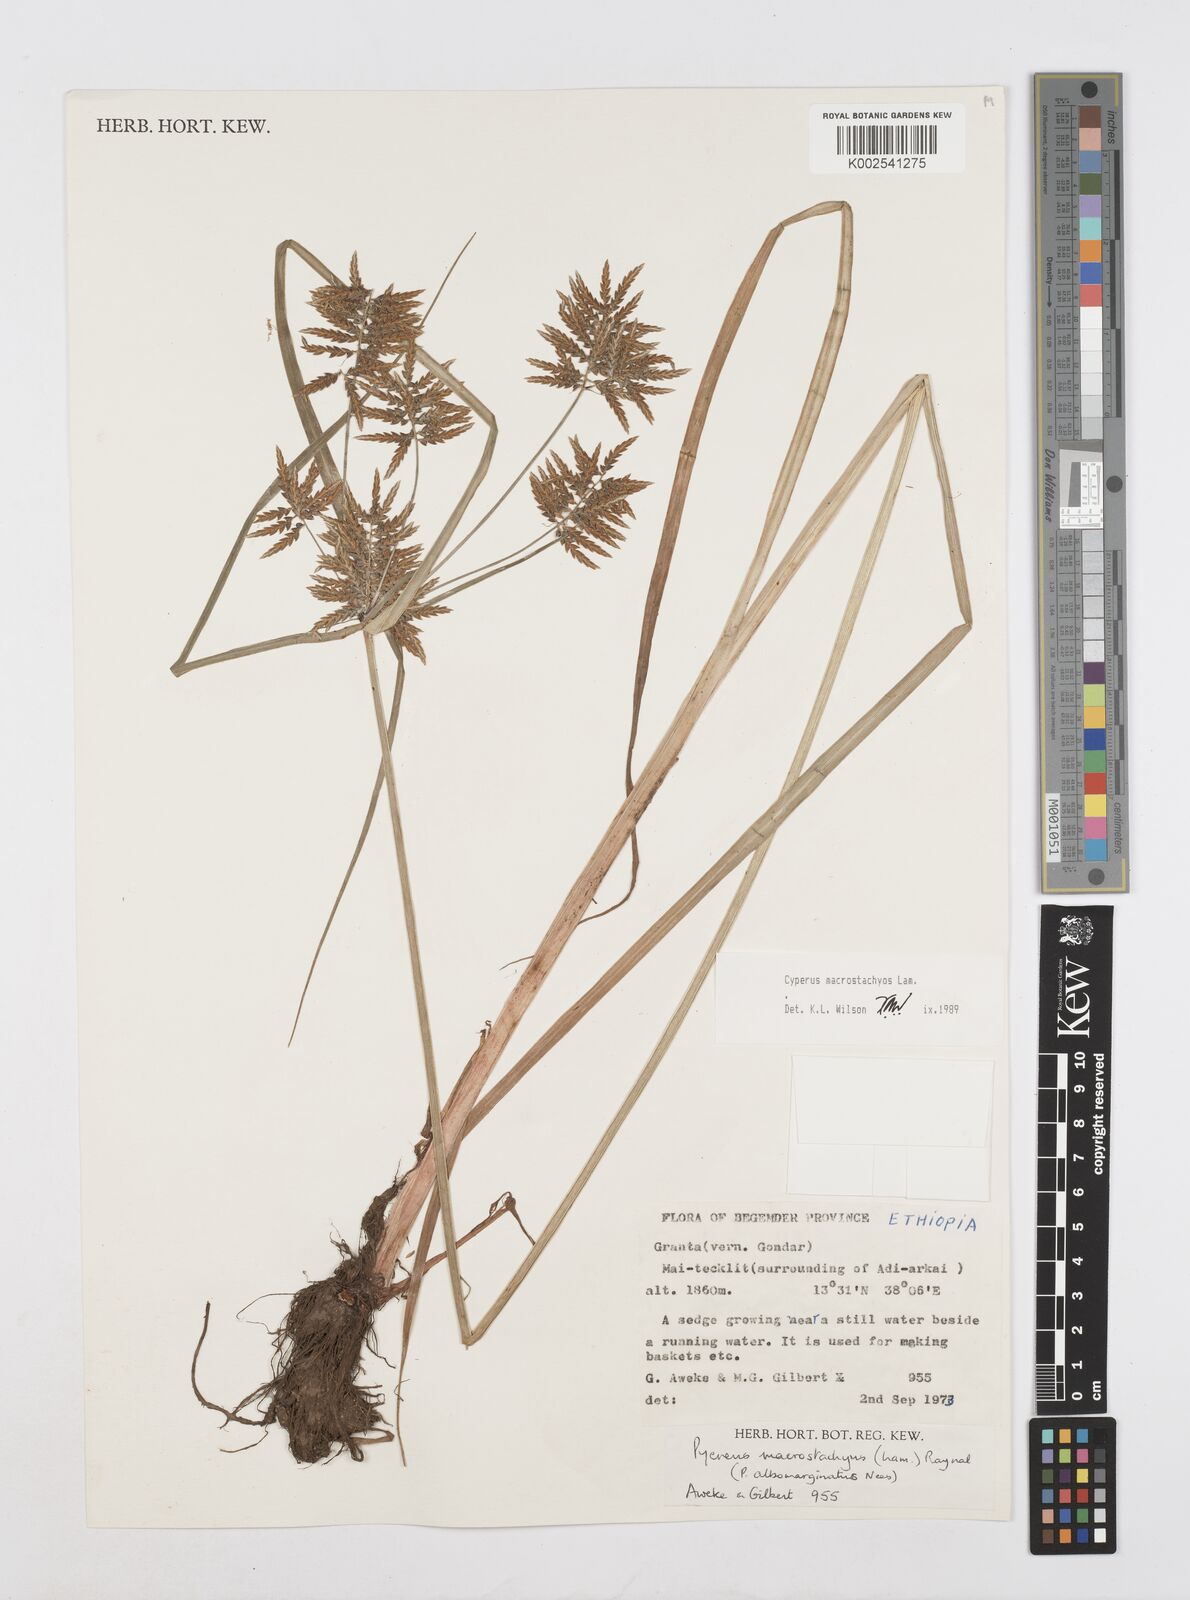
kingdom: Plantae
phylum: Tracheophyta
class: Liliopsida
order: Poales
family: Cyperaceae
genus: Cyperus
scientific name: Cyperus macrostachyos
